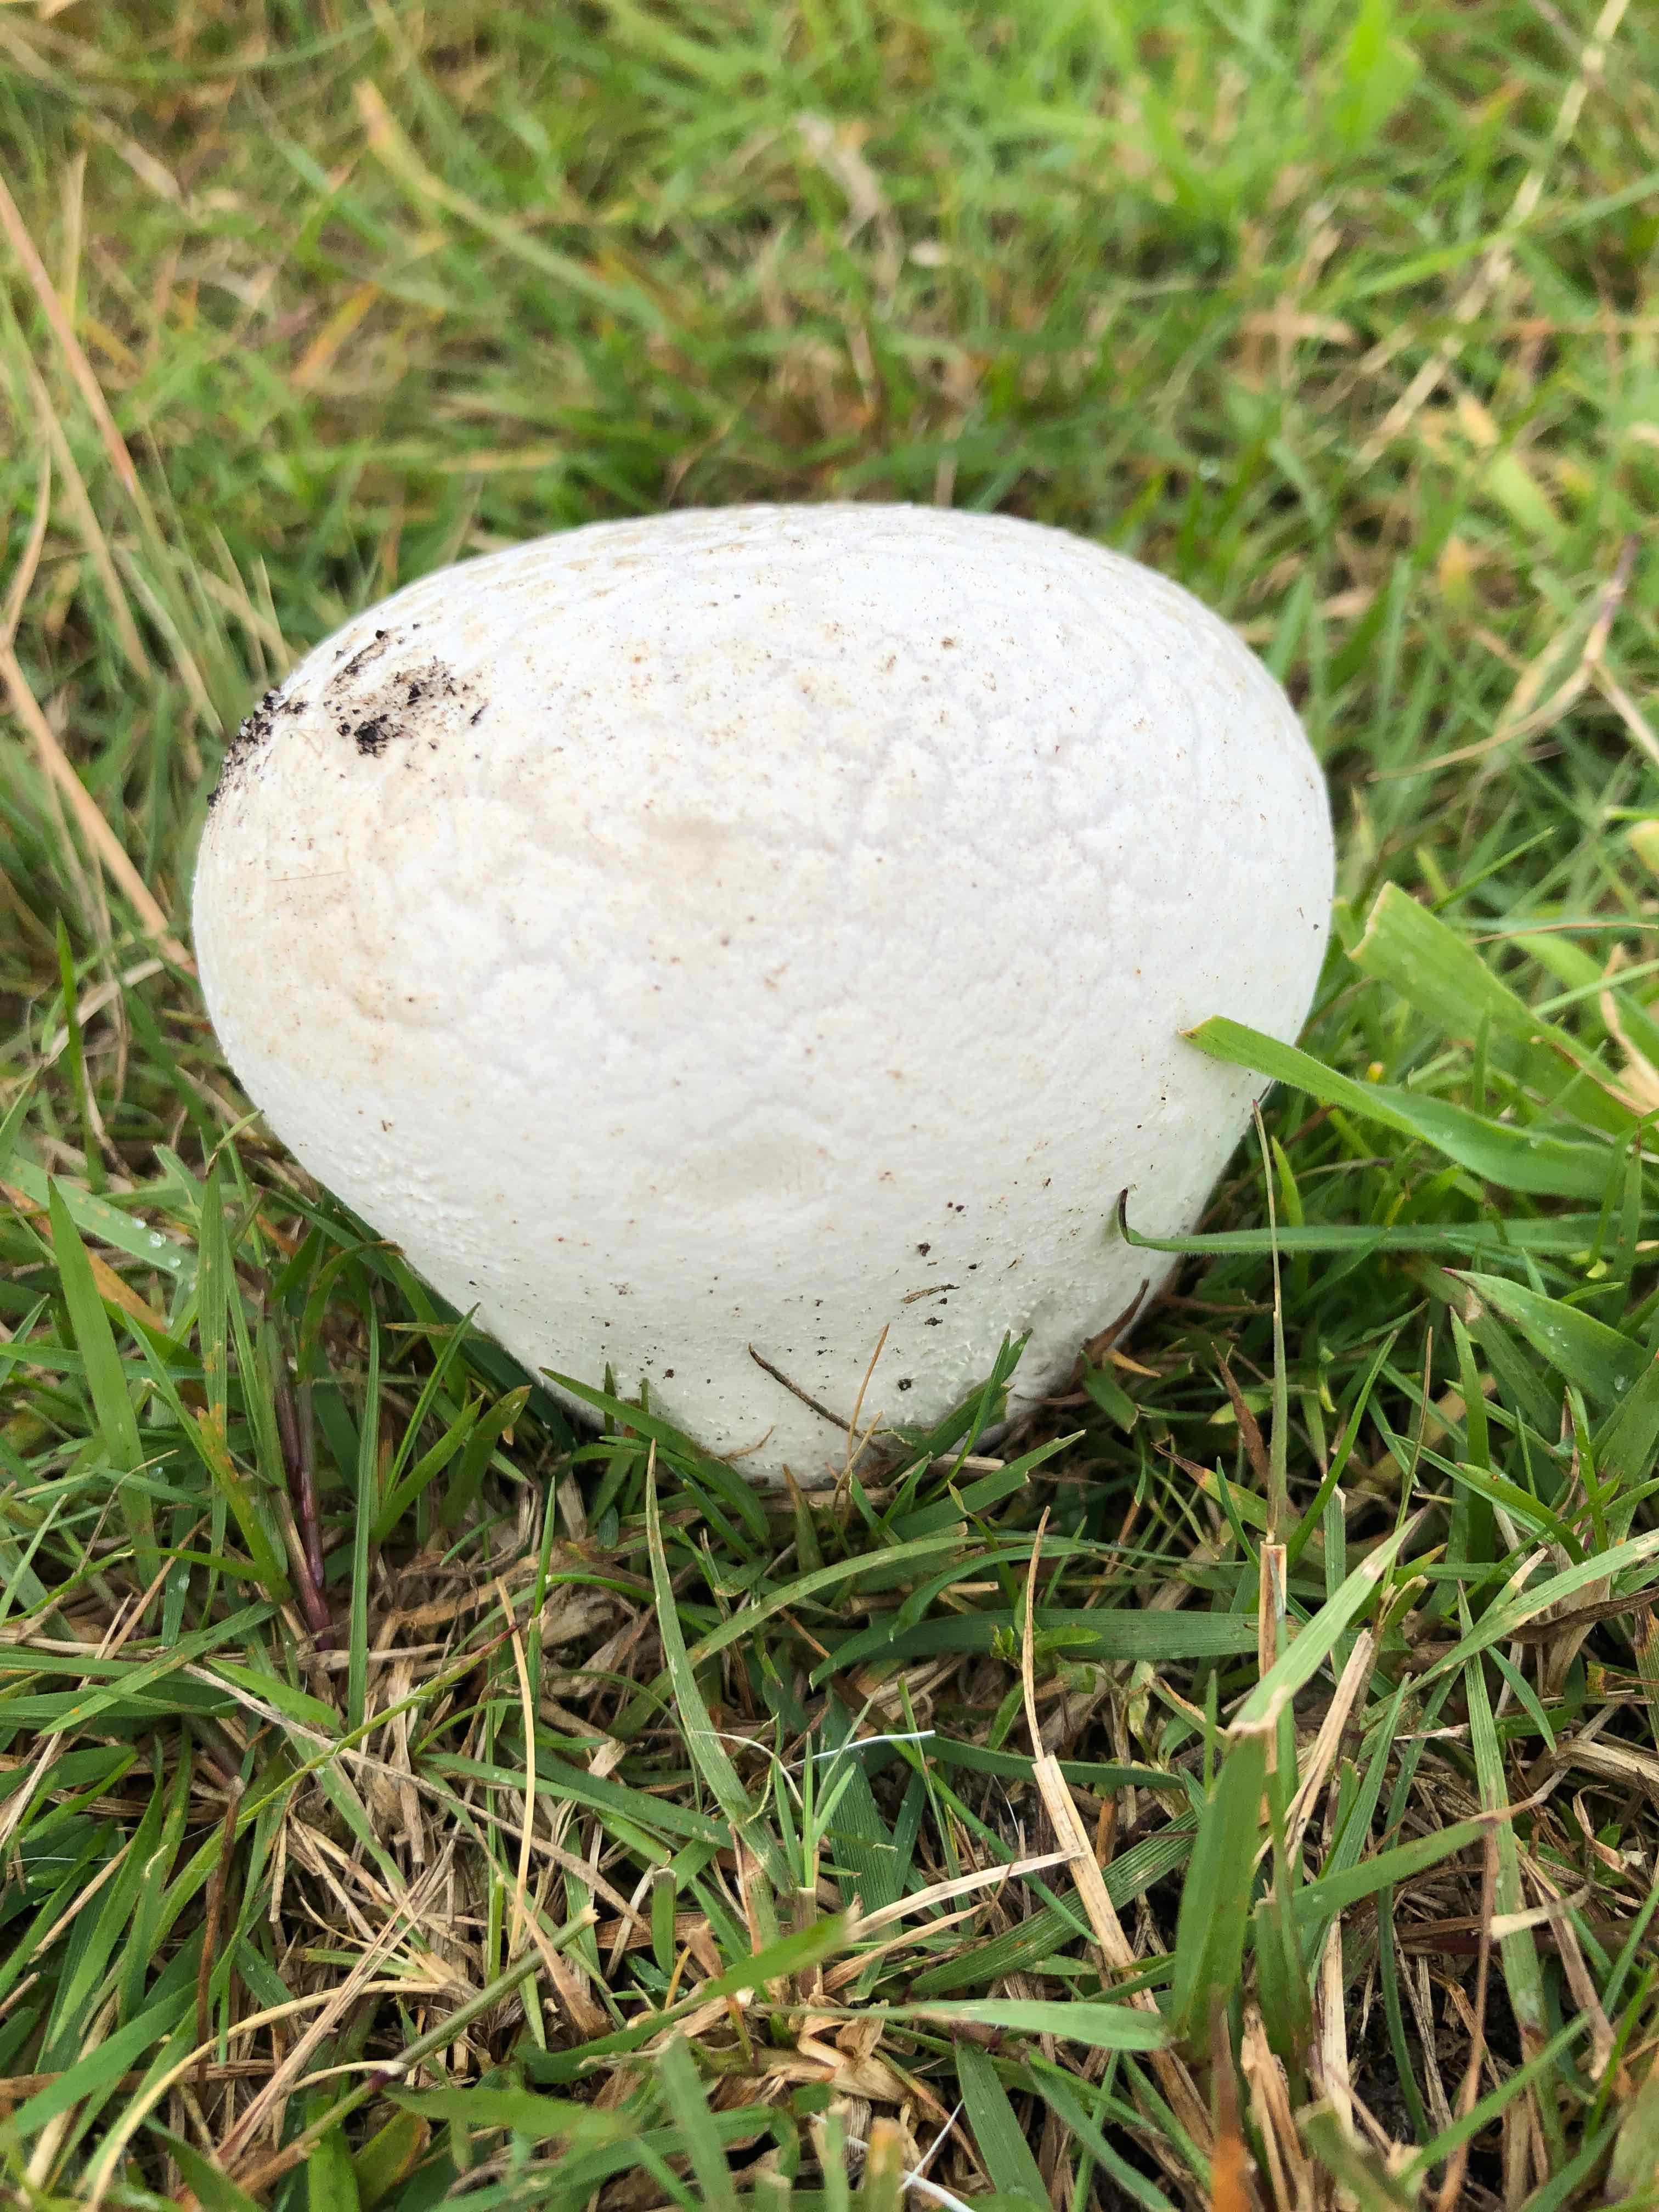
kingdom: Fungi
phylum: Basidiomycota
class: Agaricomycetes
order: Agaricales
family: Lycoperdaceae
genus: Bovistella
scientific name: Bovistella utriformis
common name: skællet støvbold
